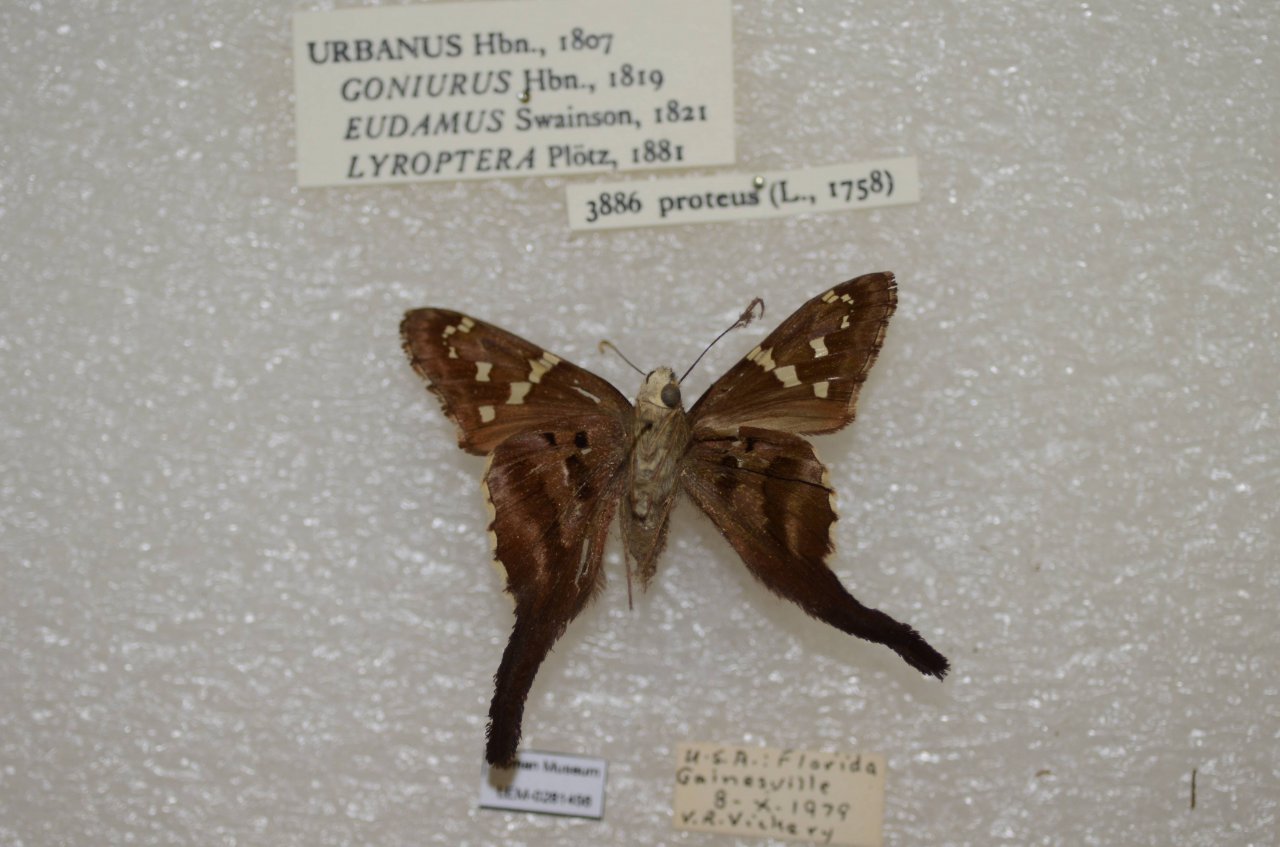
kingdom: Animalia
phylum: Arthropoda
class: Insecta
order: Lepidoptera
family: Hesperiidae
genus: Urbanus
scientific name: Urbanus proteus
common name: Long-tailed Skipper
